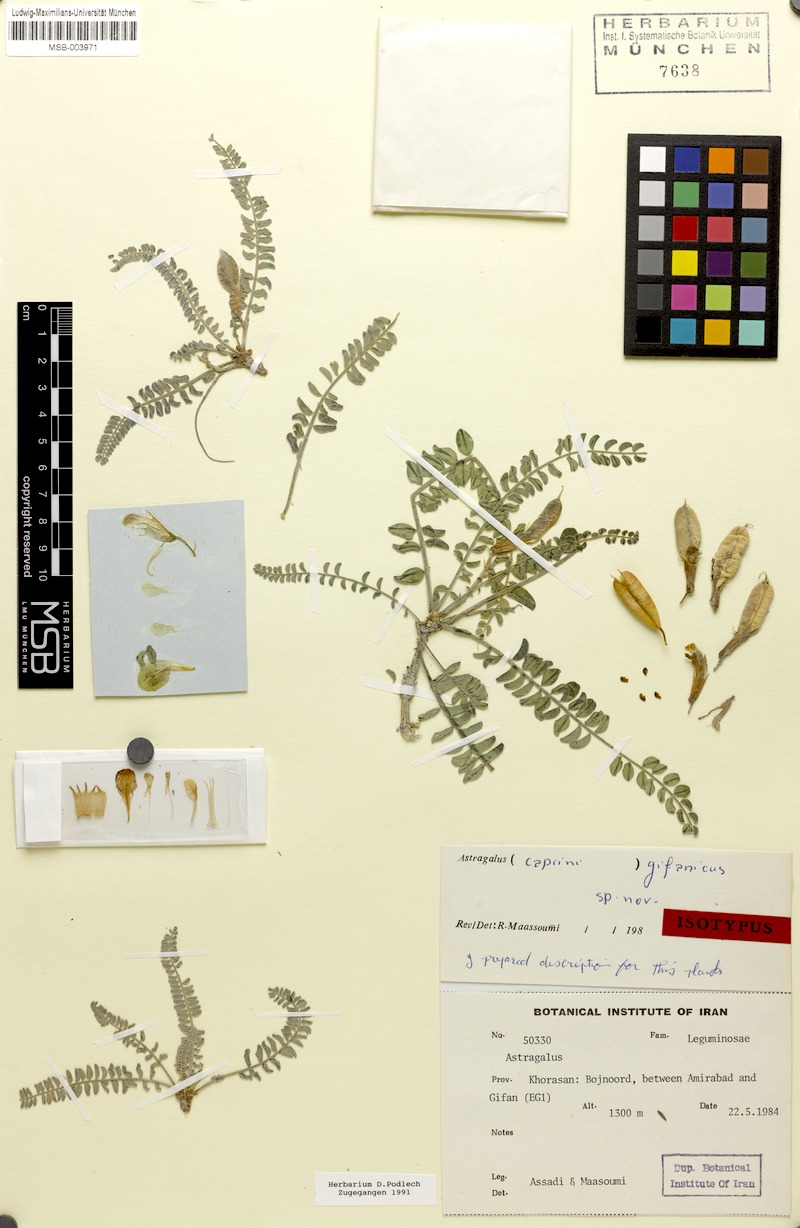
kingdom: Plantae
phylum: Tracheophyta
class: Magnoliopsida
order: Fabales
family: Fabaceae
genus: Astragalus
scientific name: Astragalus gifanicus
